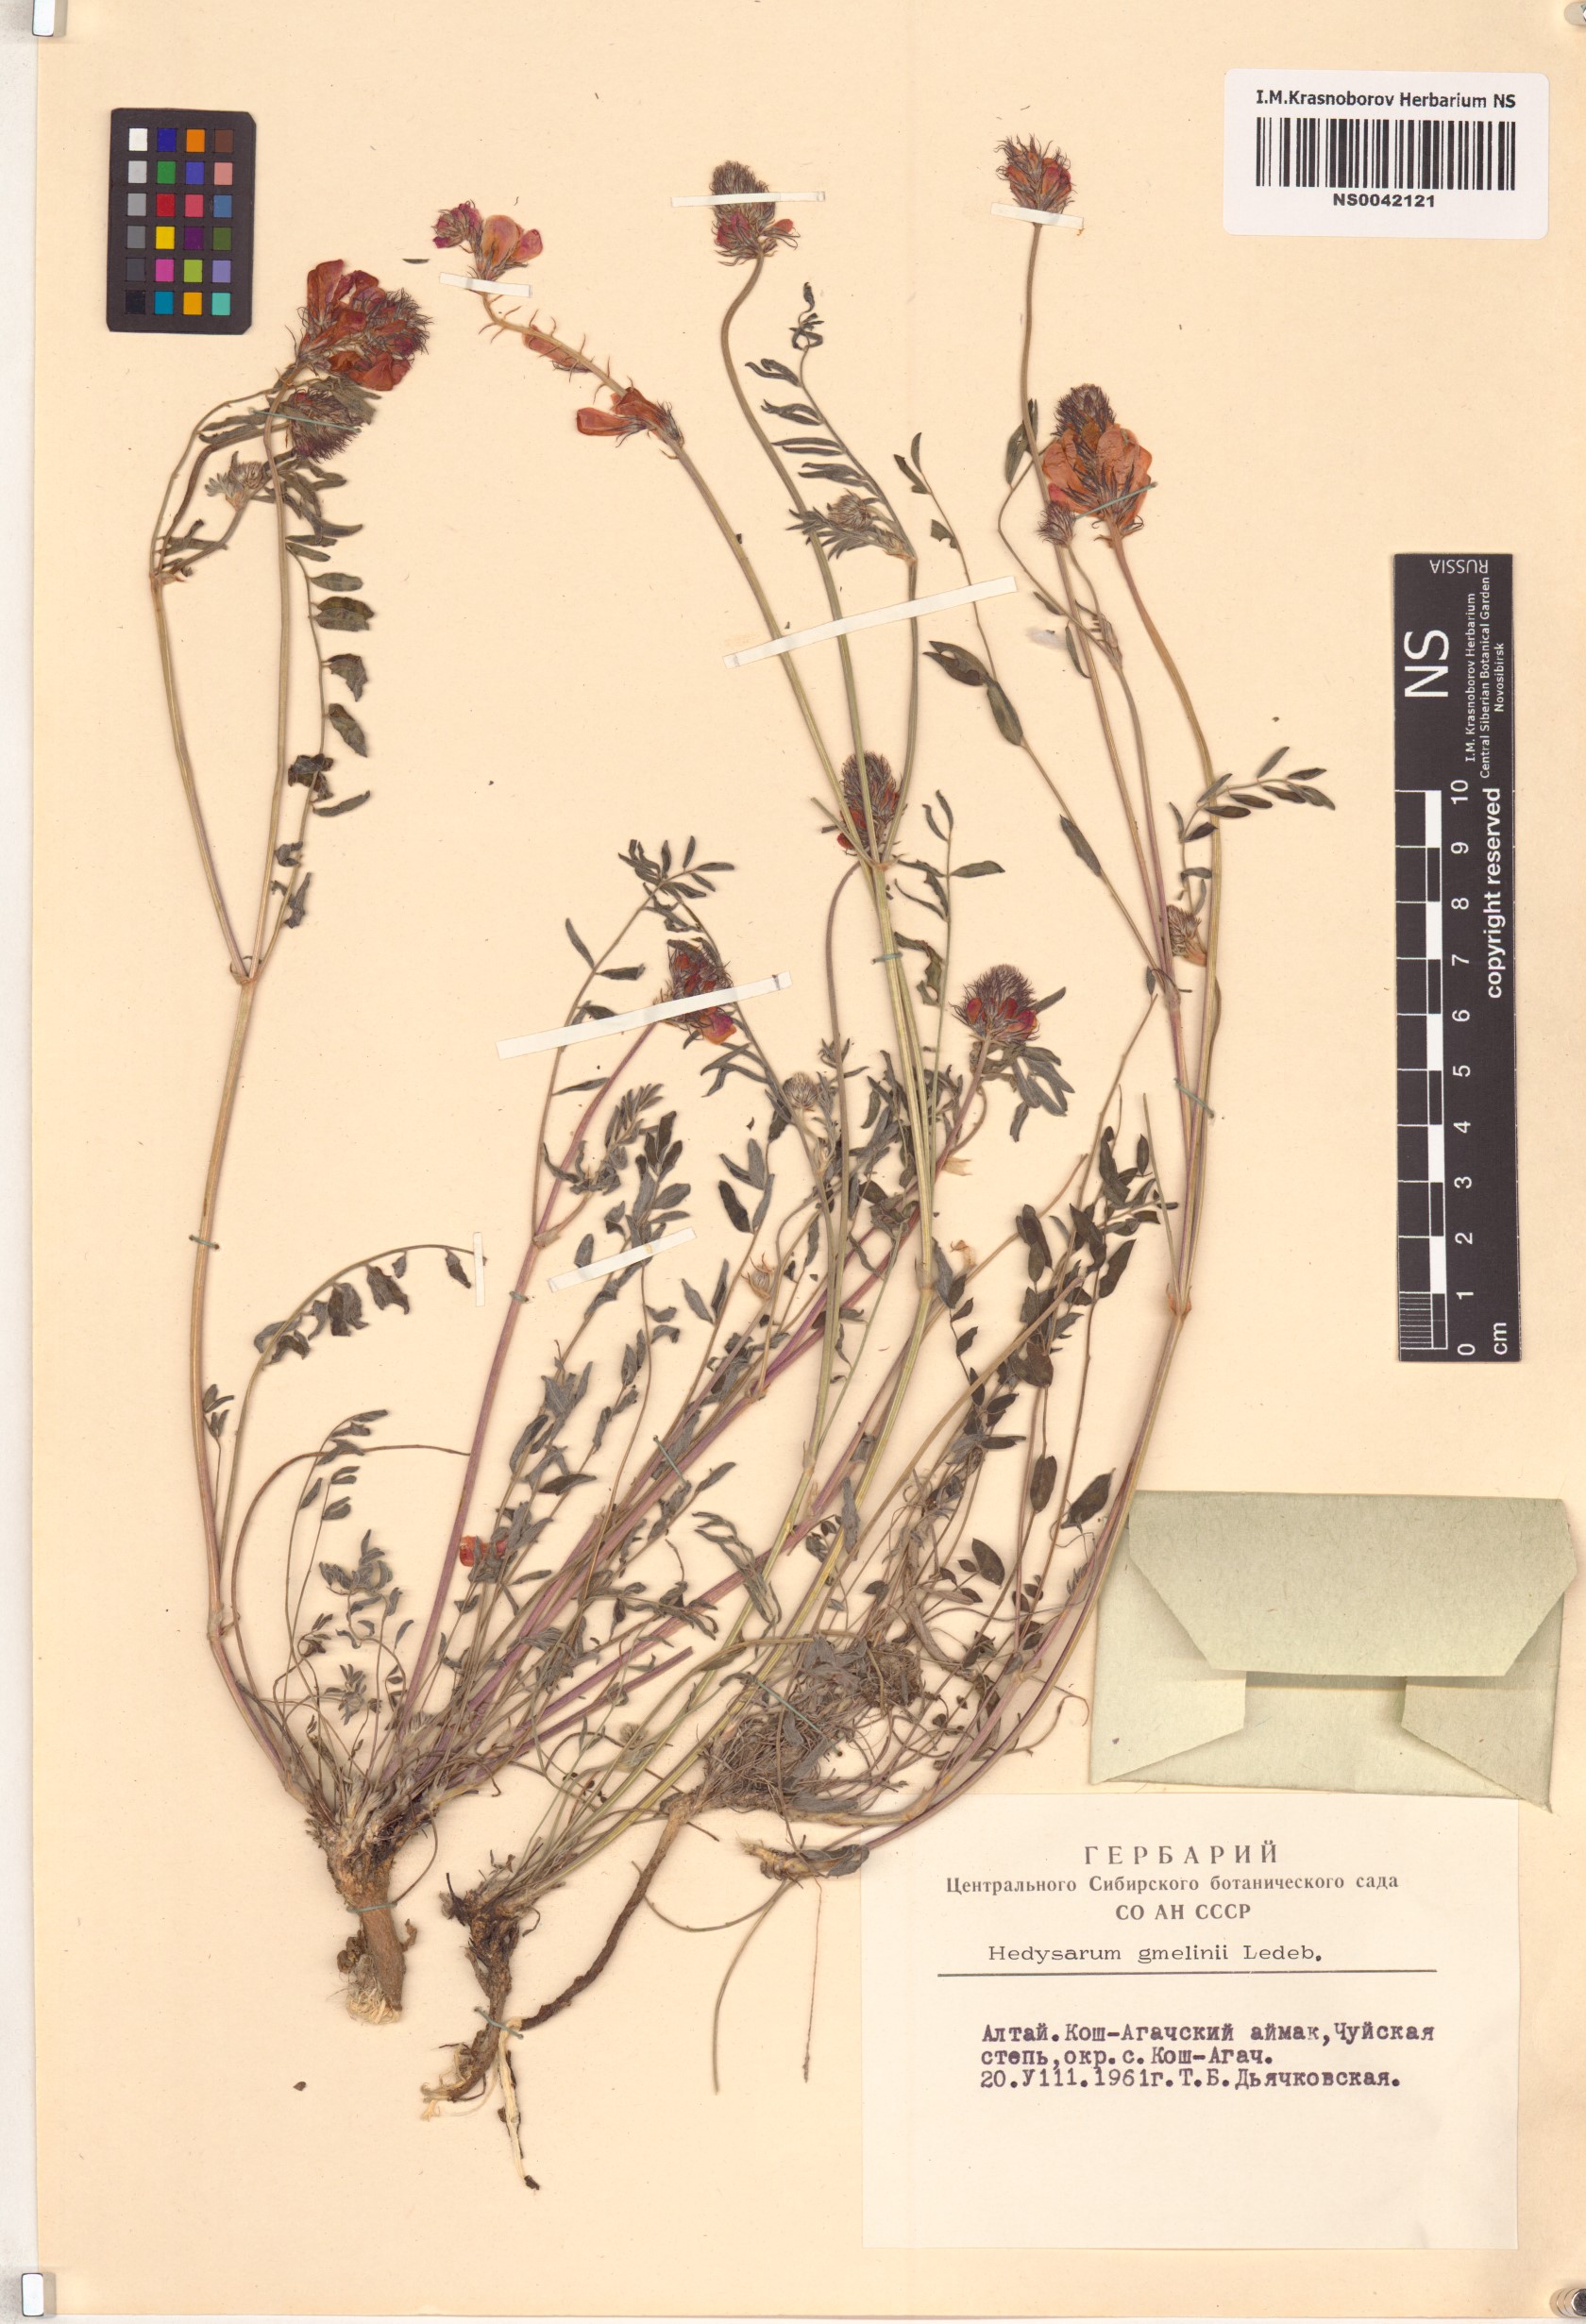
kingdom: Plantae
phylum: Tracheophyta
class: Magnoliopsida
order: Fabales
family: Fabaceae
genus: Hedysarum
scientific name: Hedysarum gmelinii
